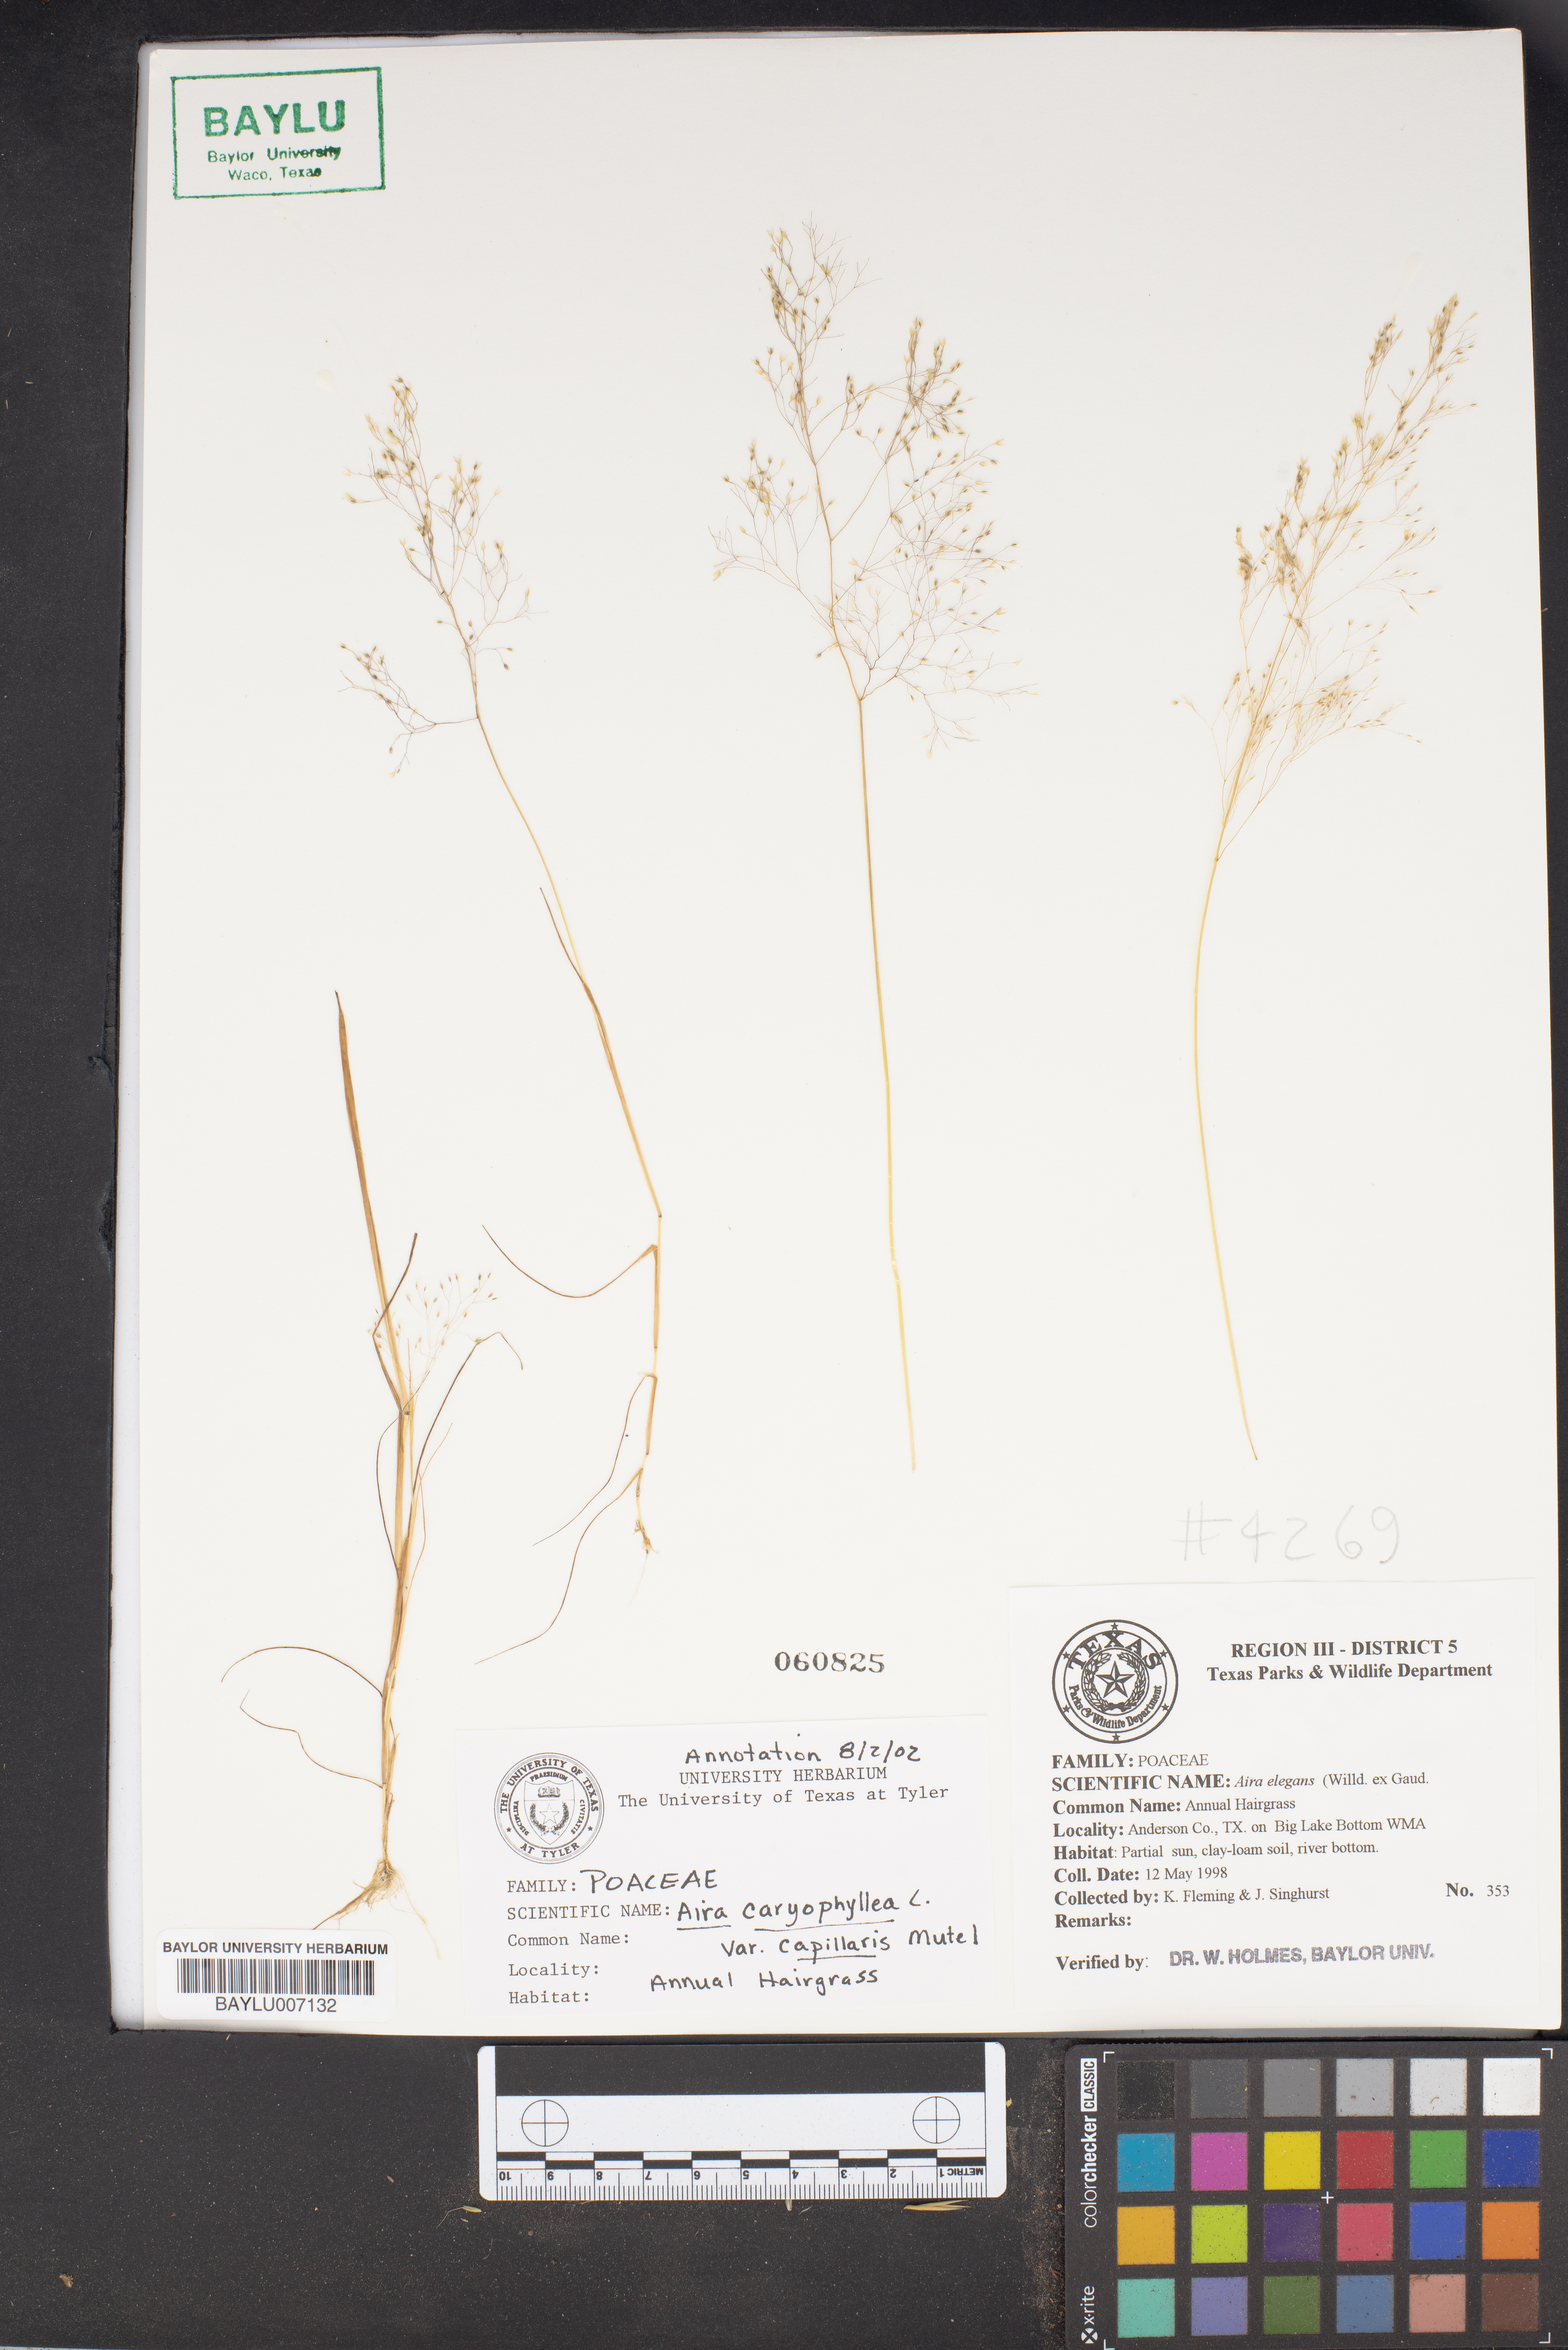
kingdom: Plantae
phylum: Tracheophyta
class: Liliopsida
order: Poales
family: Poaceae
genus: Aira
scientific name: Aira elegans
